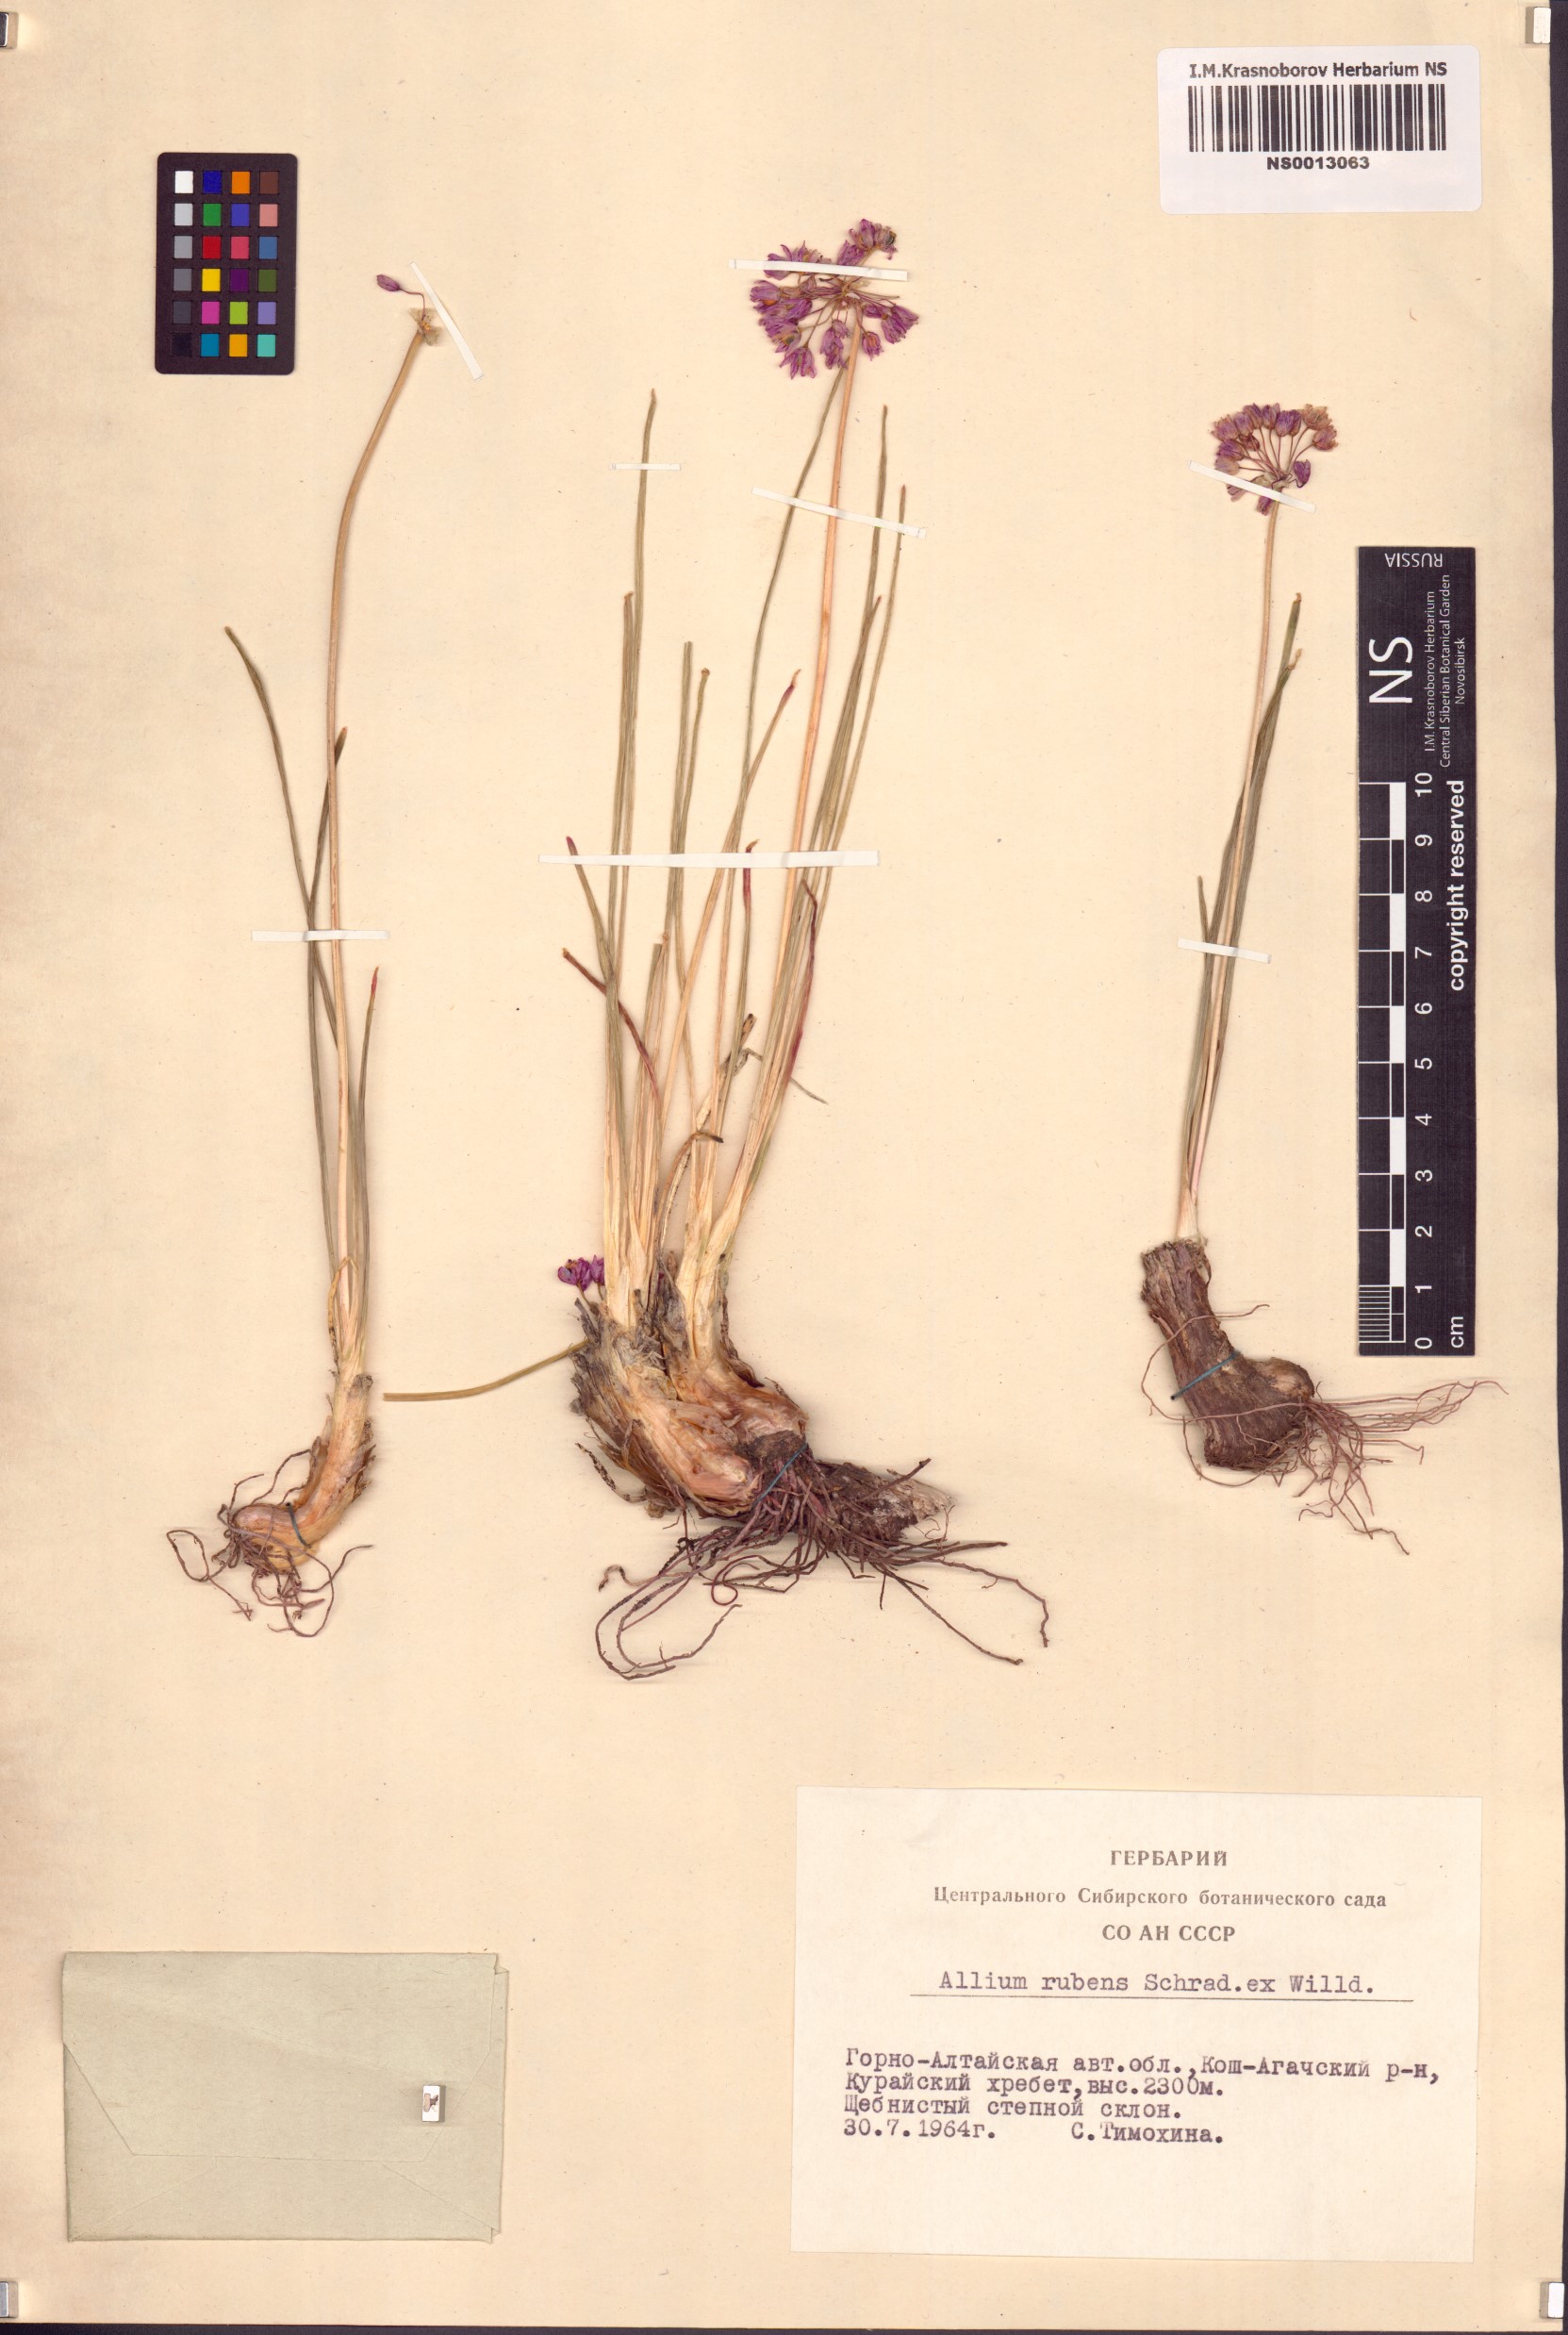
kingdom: Plantae
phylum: Tracheophyta
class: Liliopsida
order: Asparagales
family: Amaryllidaceae
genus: Allium
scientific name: Allium rubens
